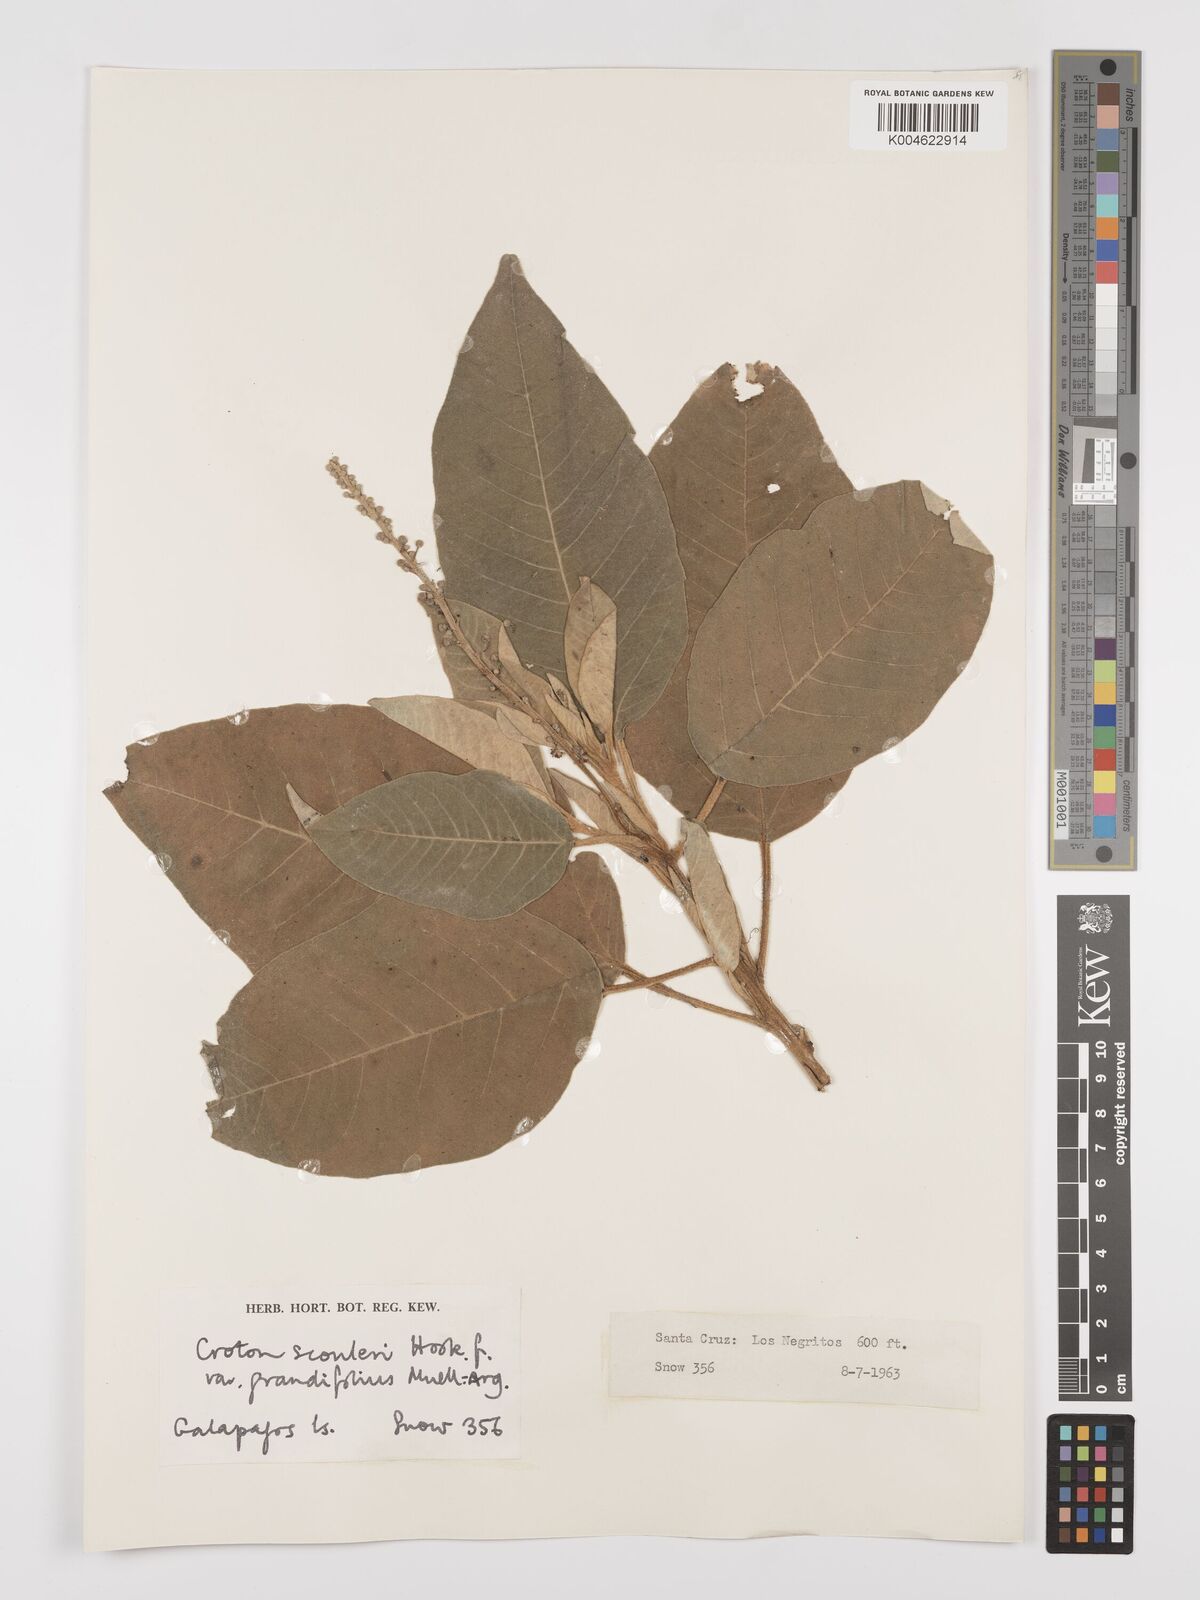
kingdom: Plantae
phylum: Tracheophyta
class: Magnoliopsida
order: Malpighiales
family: Euphorbiaceae
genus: Croton
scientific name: Croton scouleri
